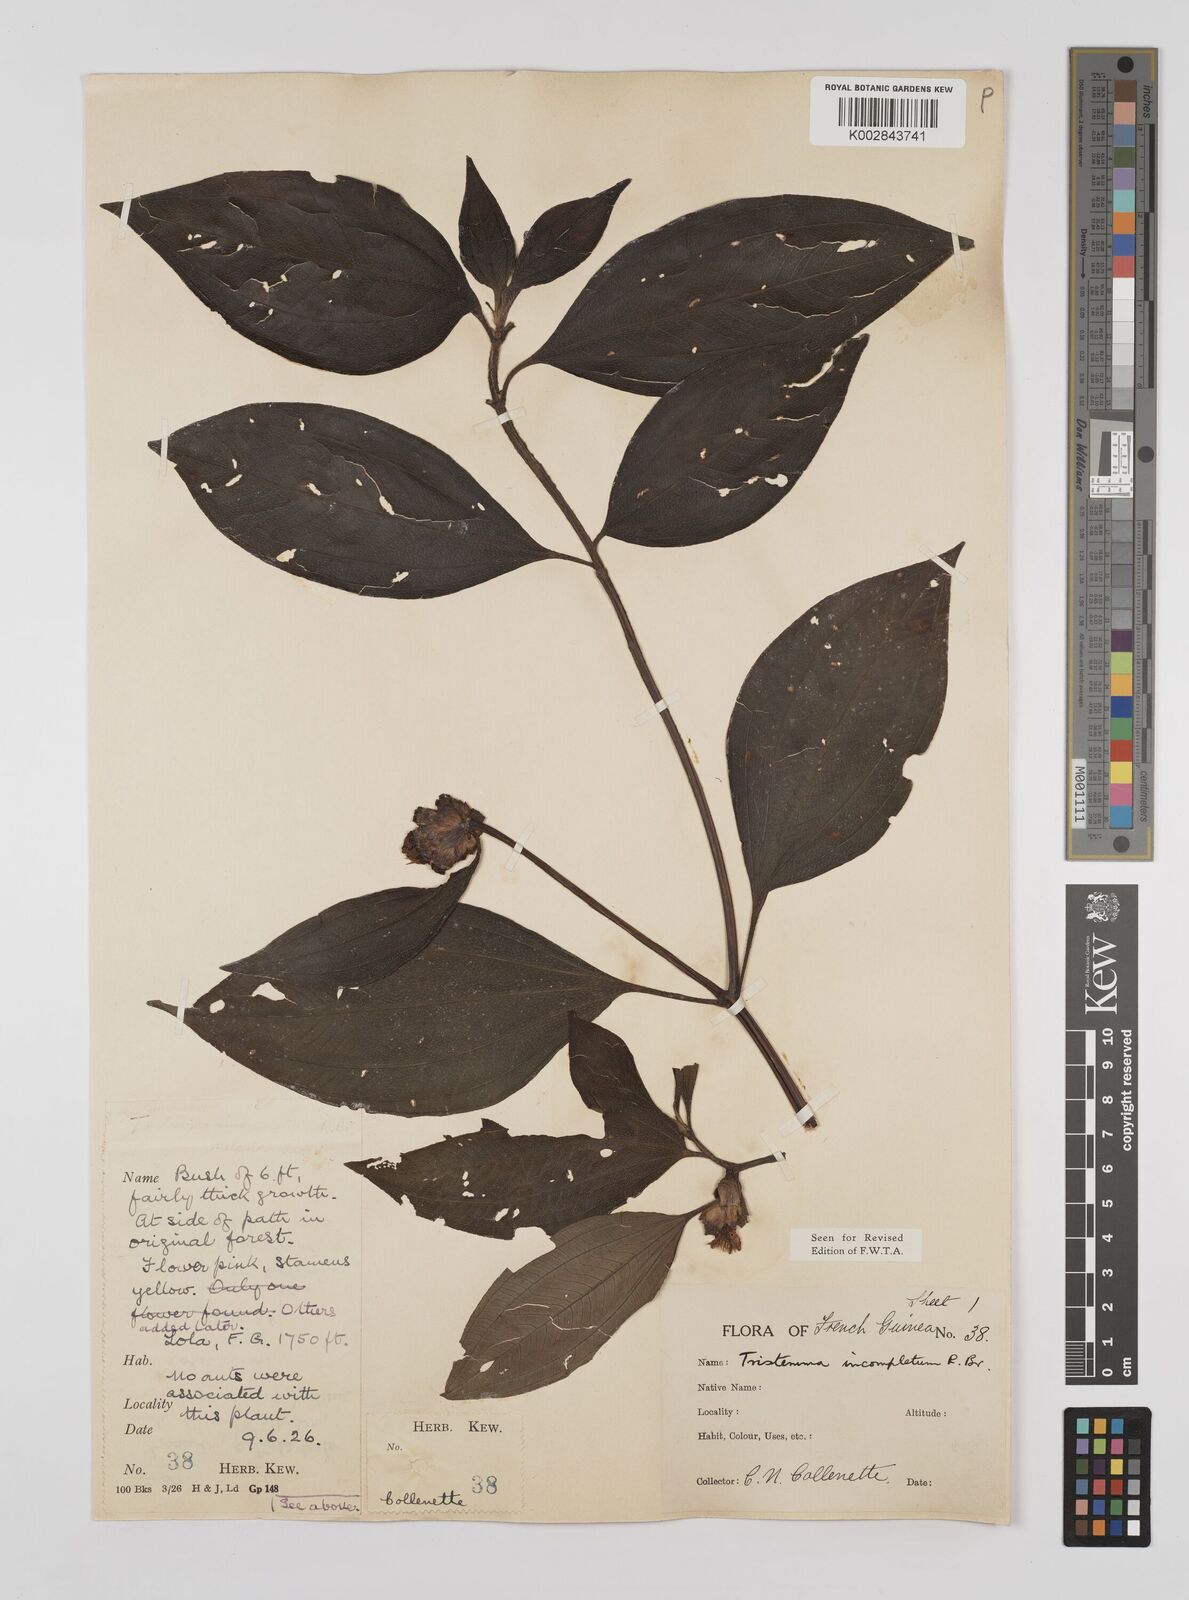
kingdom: Plantae
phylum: Tracheophyta
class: Magnoliopsida
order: Myrtales
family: Melastomataceae
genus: Tristemma
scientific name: Tristemma mauritianum
